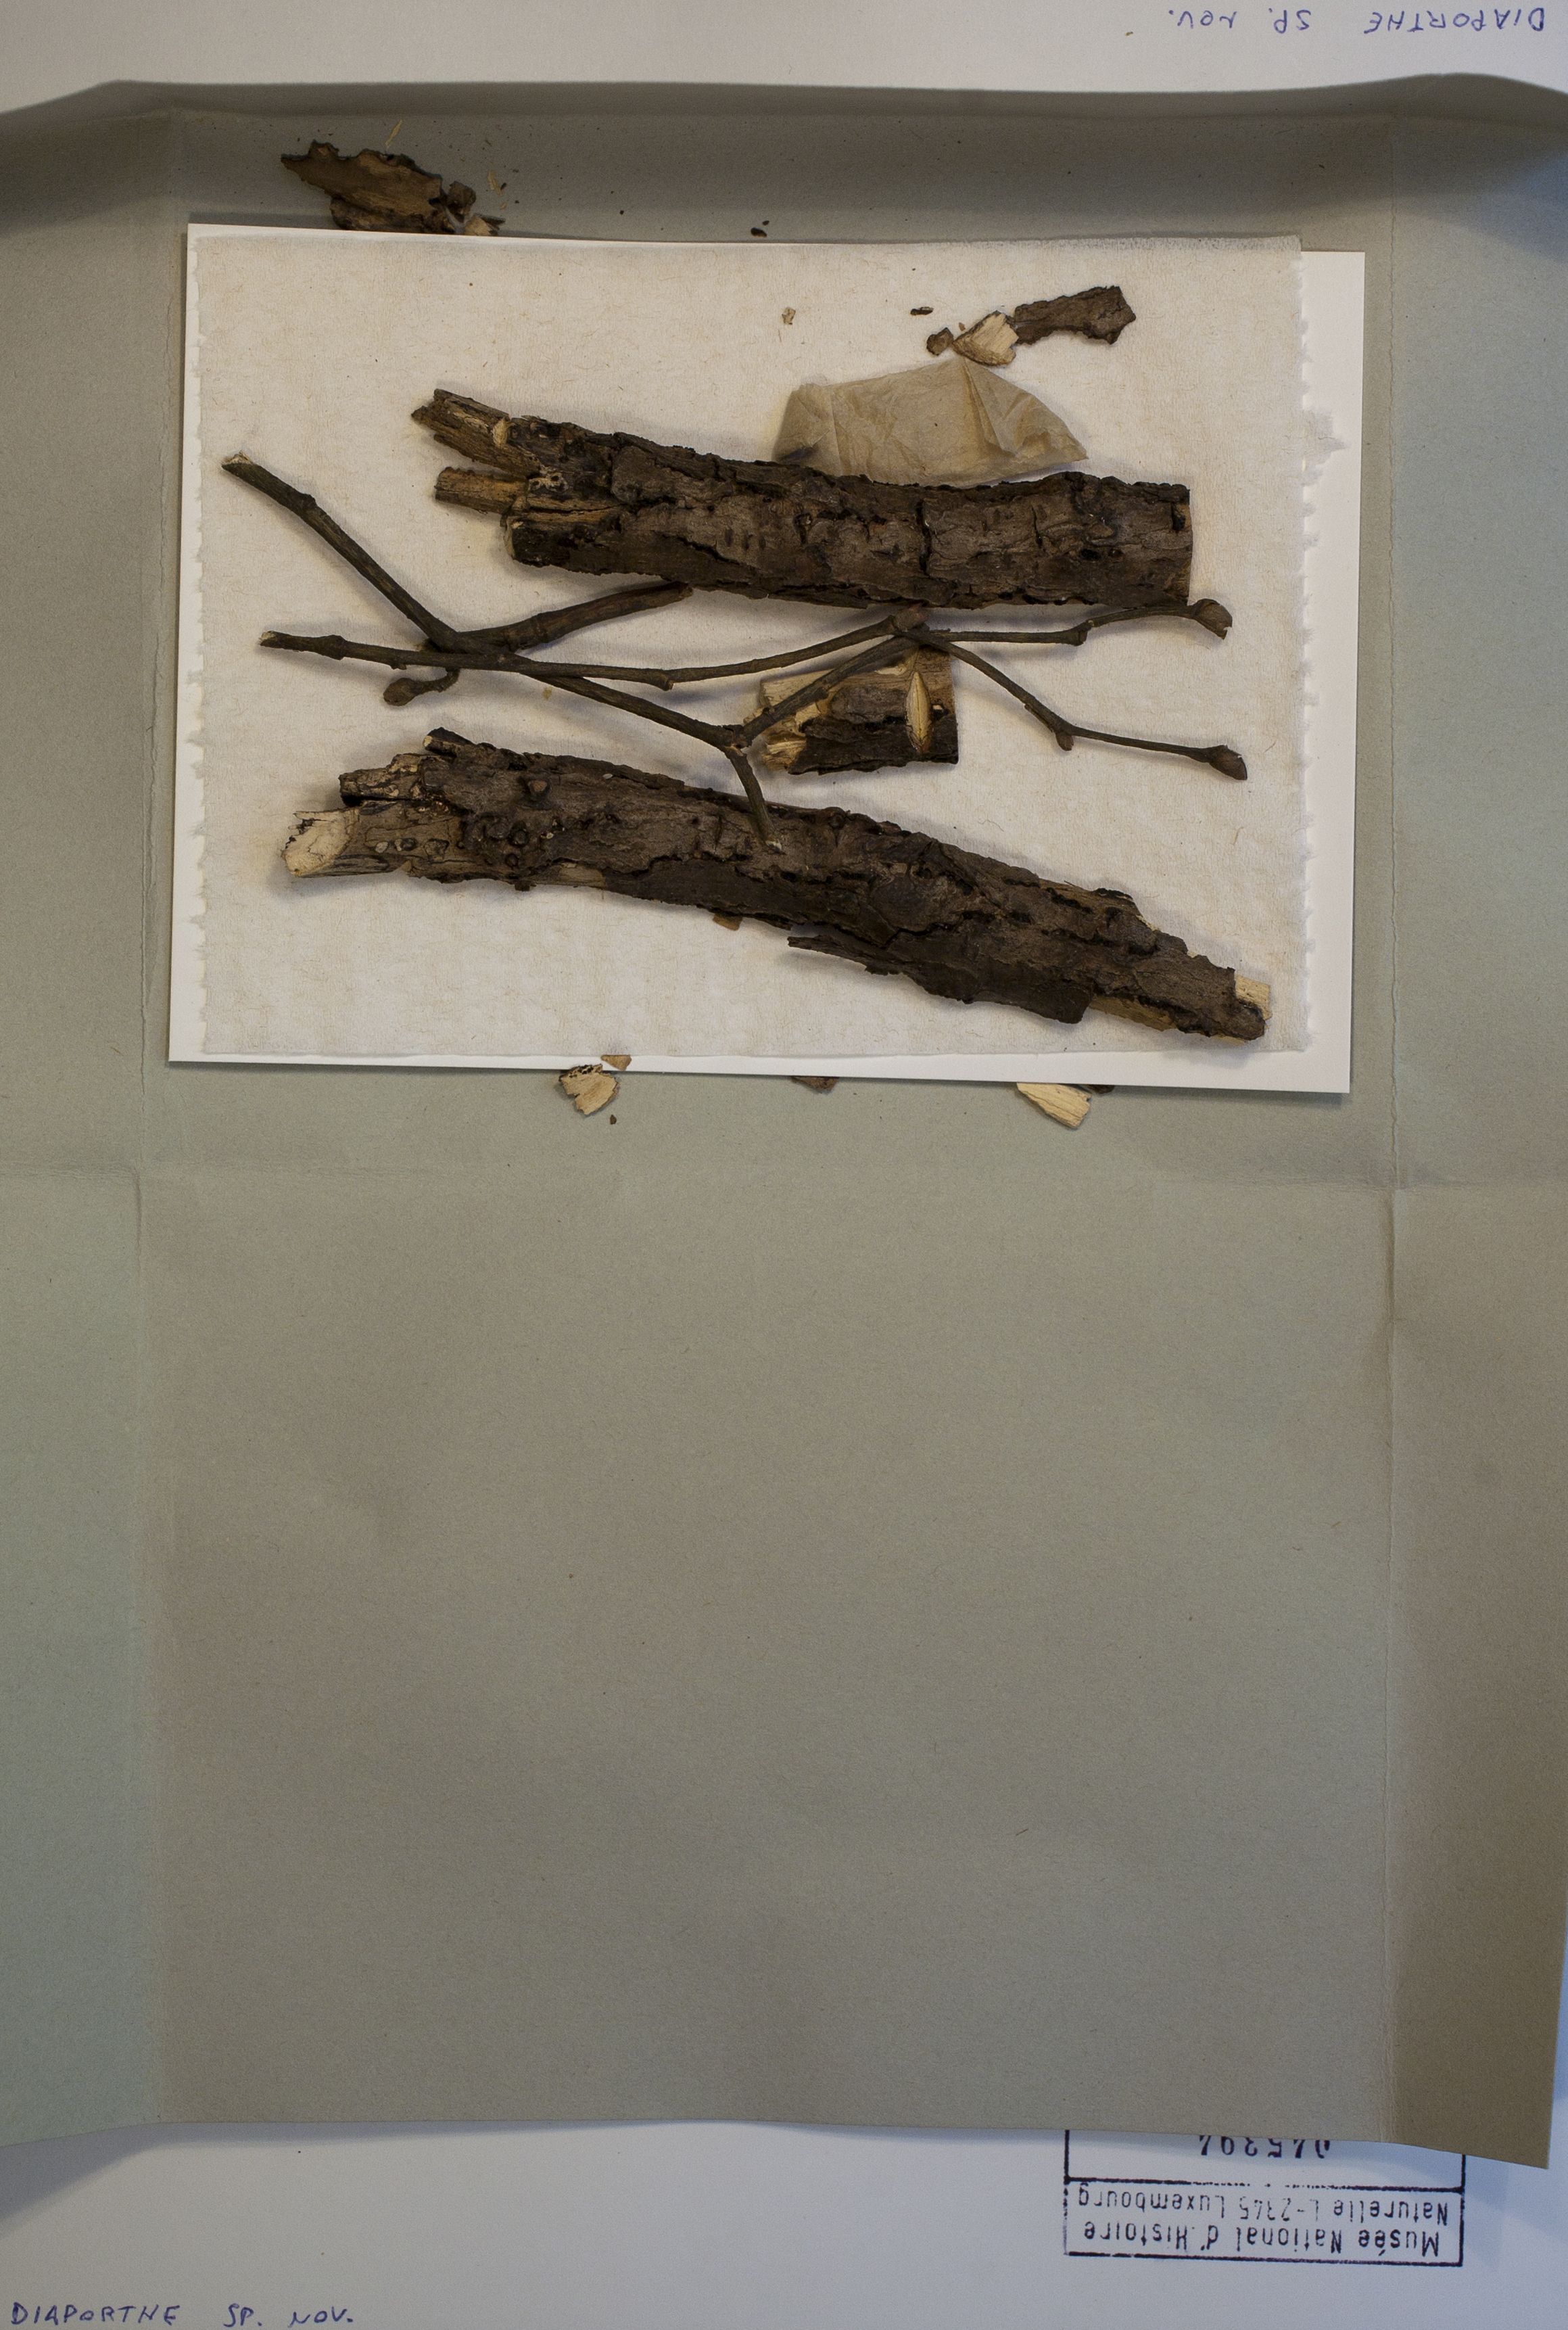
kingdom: Fungi
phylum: Ascomycota
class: Sordariomycetes
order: Diaporthales
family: Diaporthaceae
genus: Diaporthe
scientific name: Diaporthe
